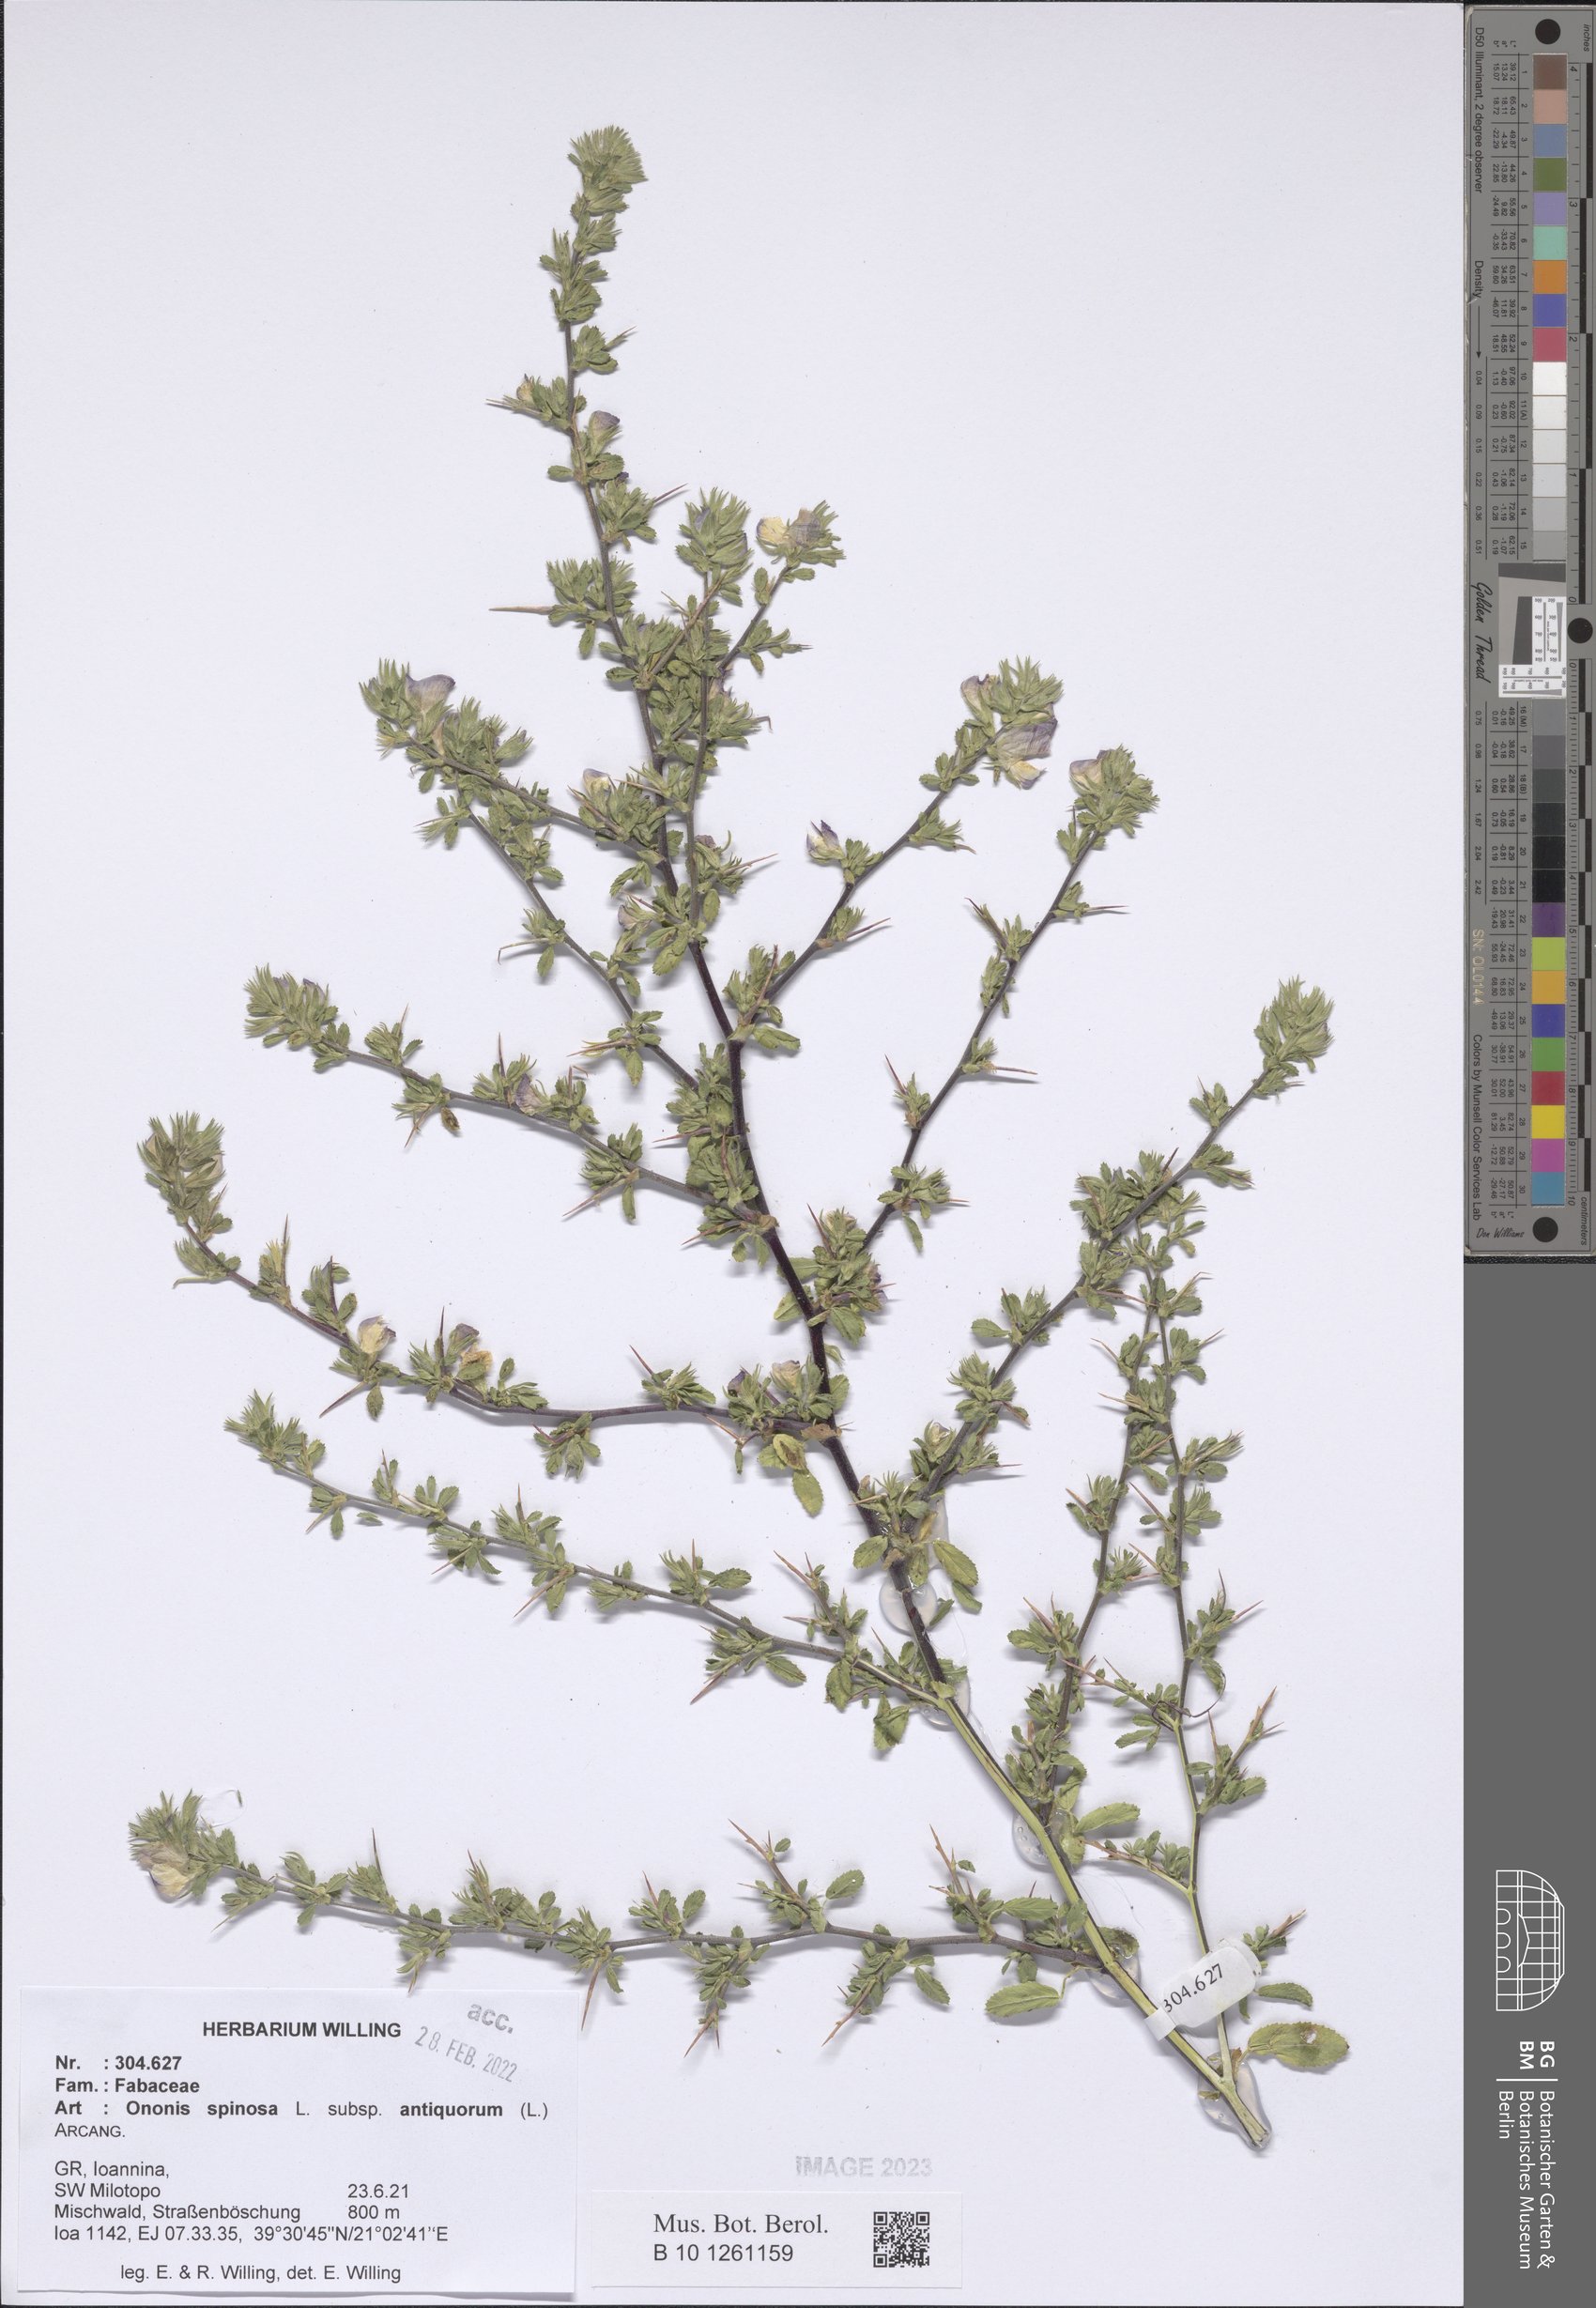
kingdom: Plantae
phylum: Tracheophyta
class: Magnoliopsida
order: Fabales
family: Fabaceae
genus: Ononis
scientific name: Ononis spinosa
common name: Spiny restharrow
